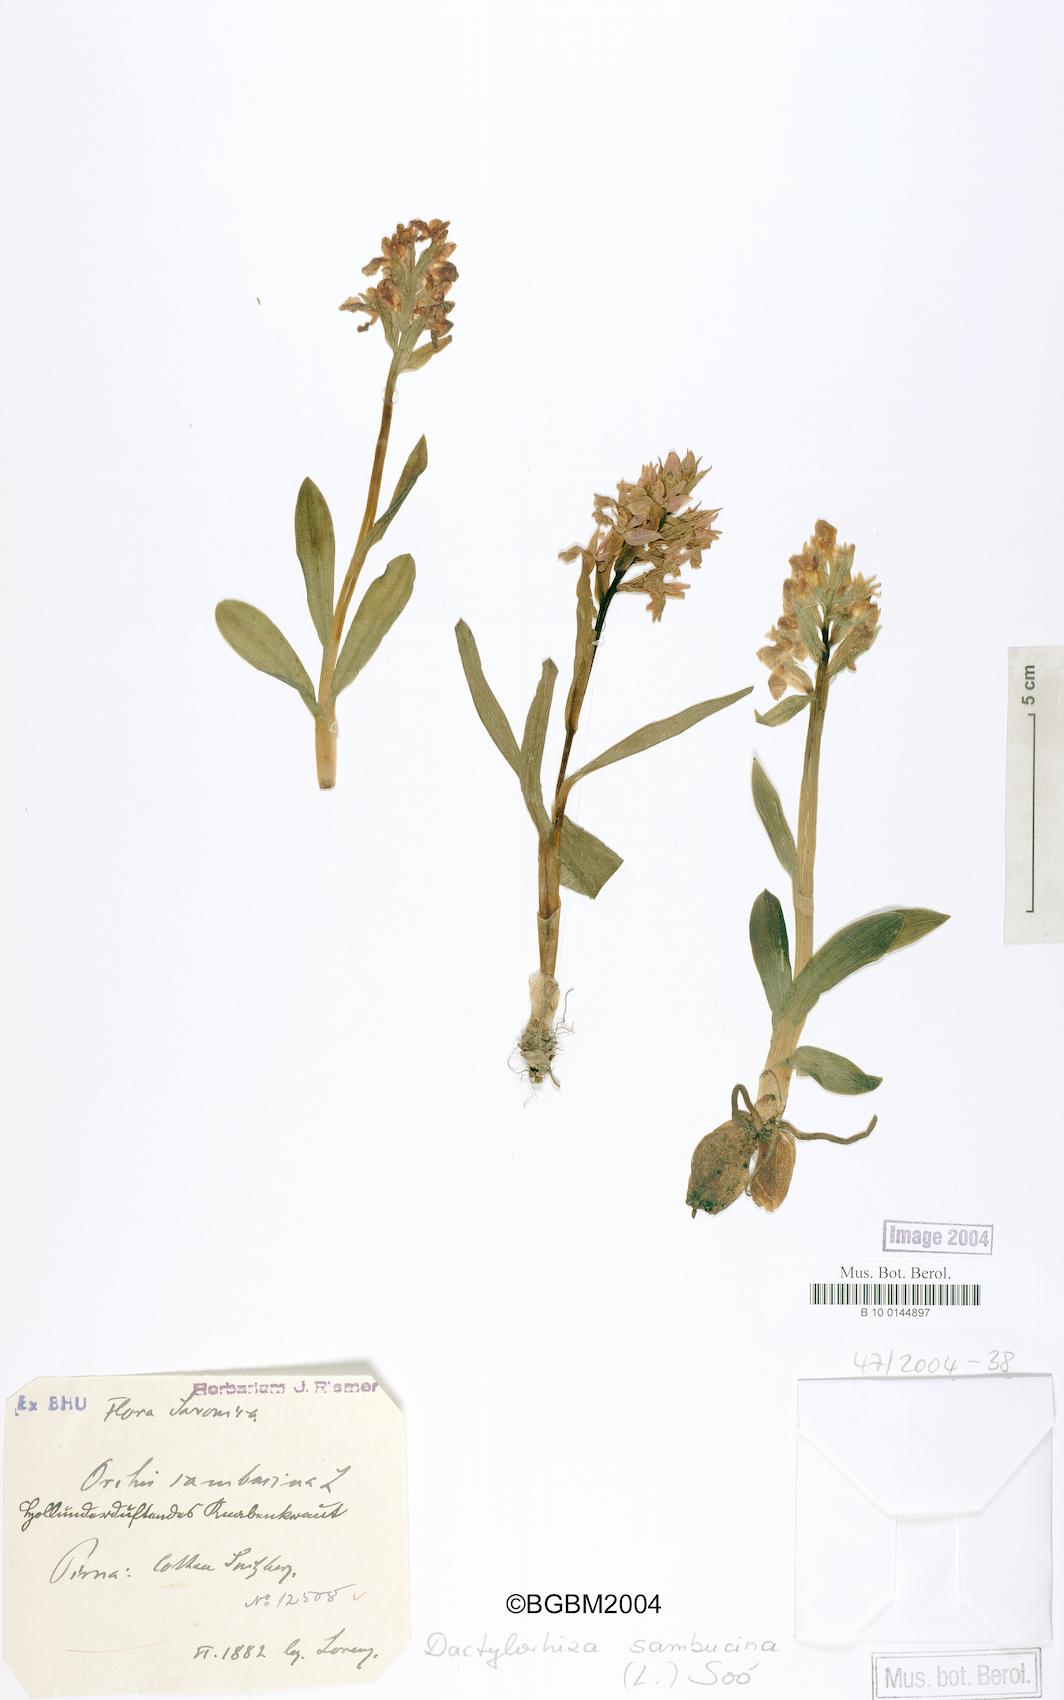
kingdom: Plantae
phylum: Tracheophyta
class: Liliopsida
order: Asparagales
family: Orchidaceae
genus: Dactylorhiza
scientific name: Dactylorhiza sambucina
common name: Elder-flowered orchid
